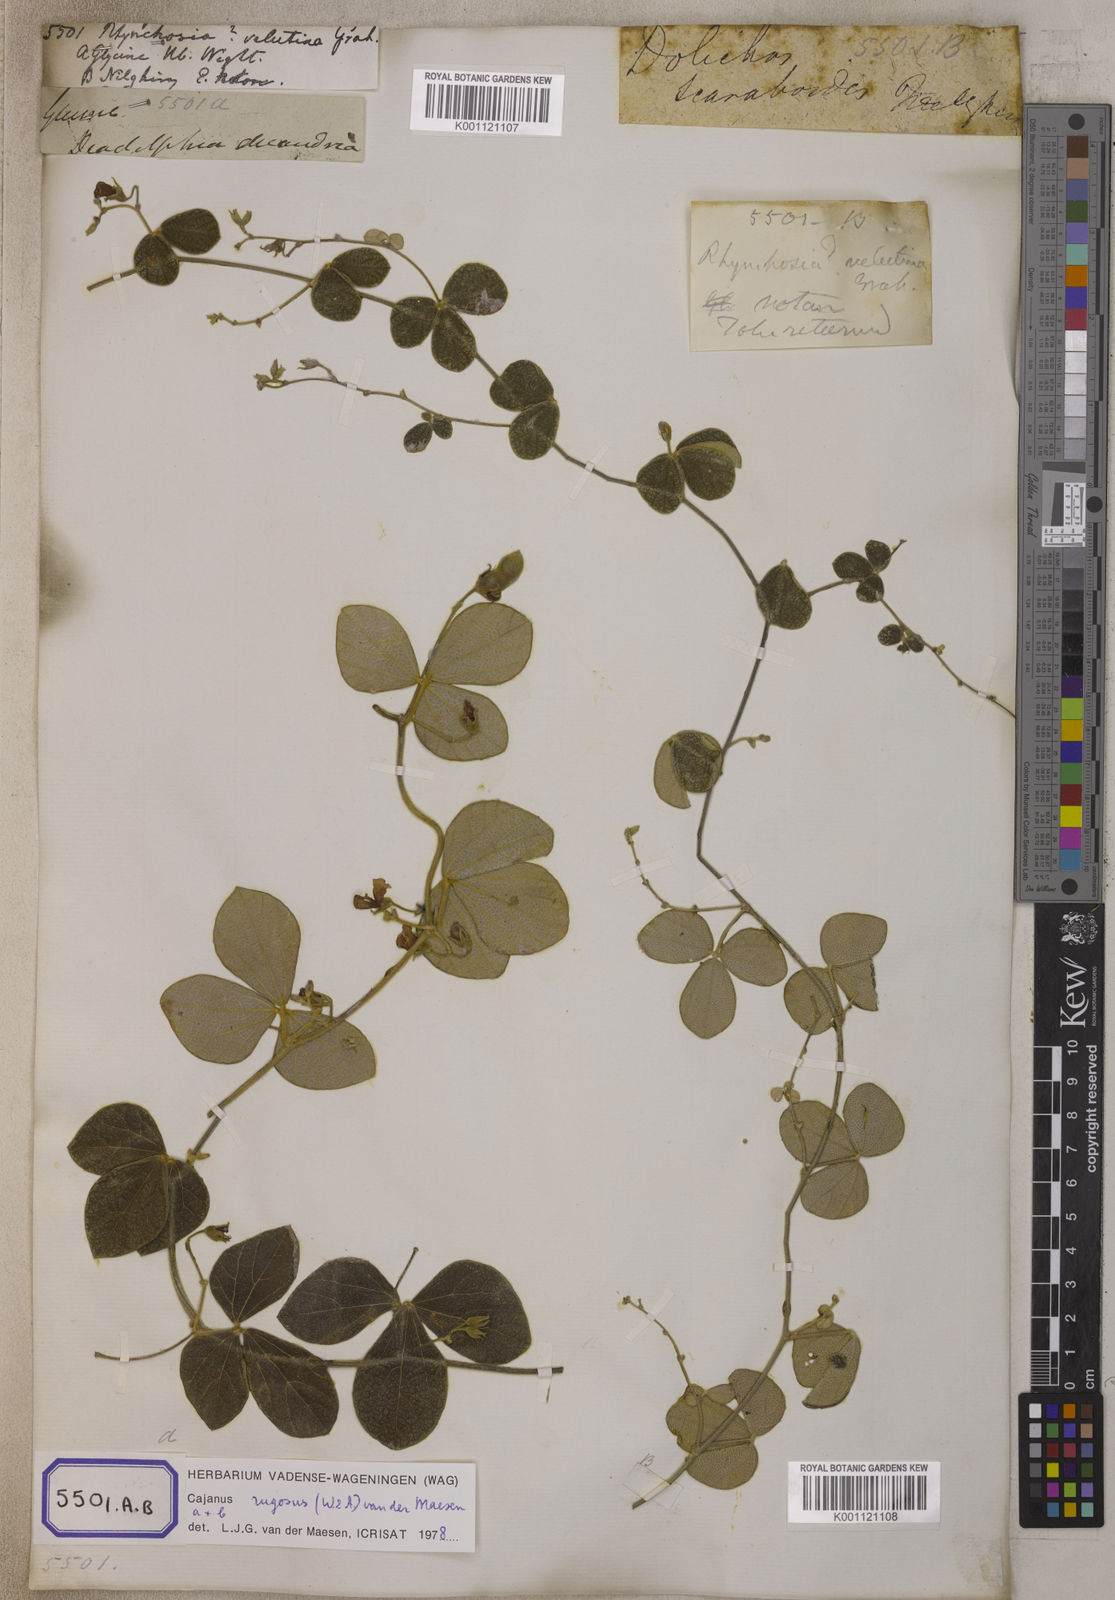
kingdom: Plantae
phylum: Tracheophyta
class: Magnoliopsida
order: Fabales
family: Fabaceae
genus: Cajanus
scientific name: Cajanus rugosus
